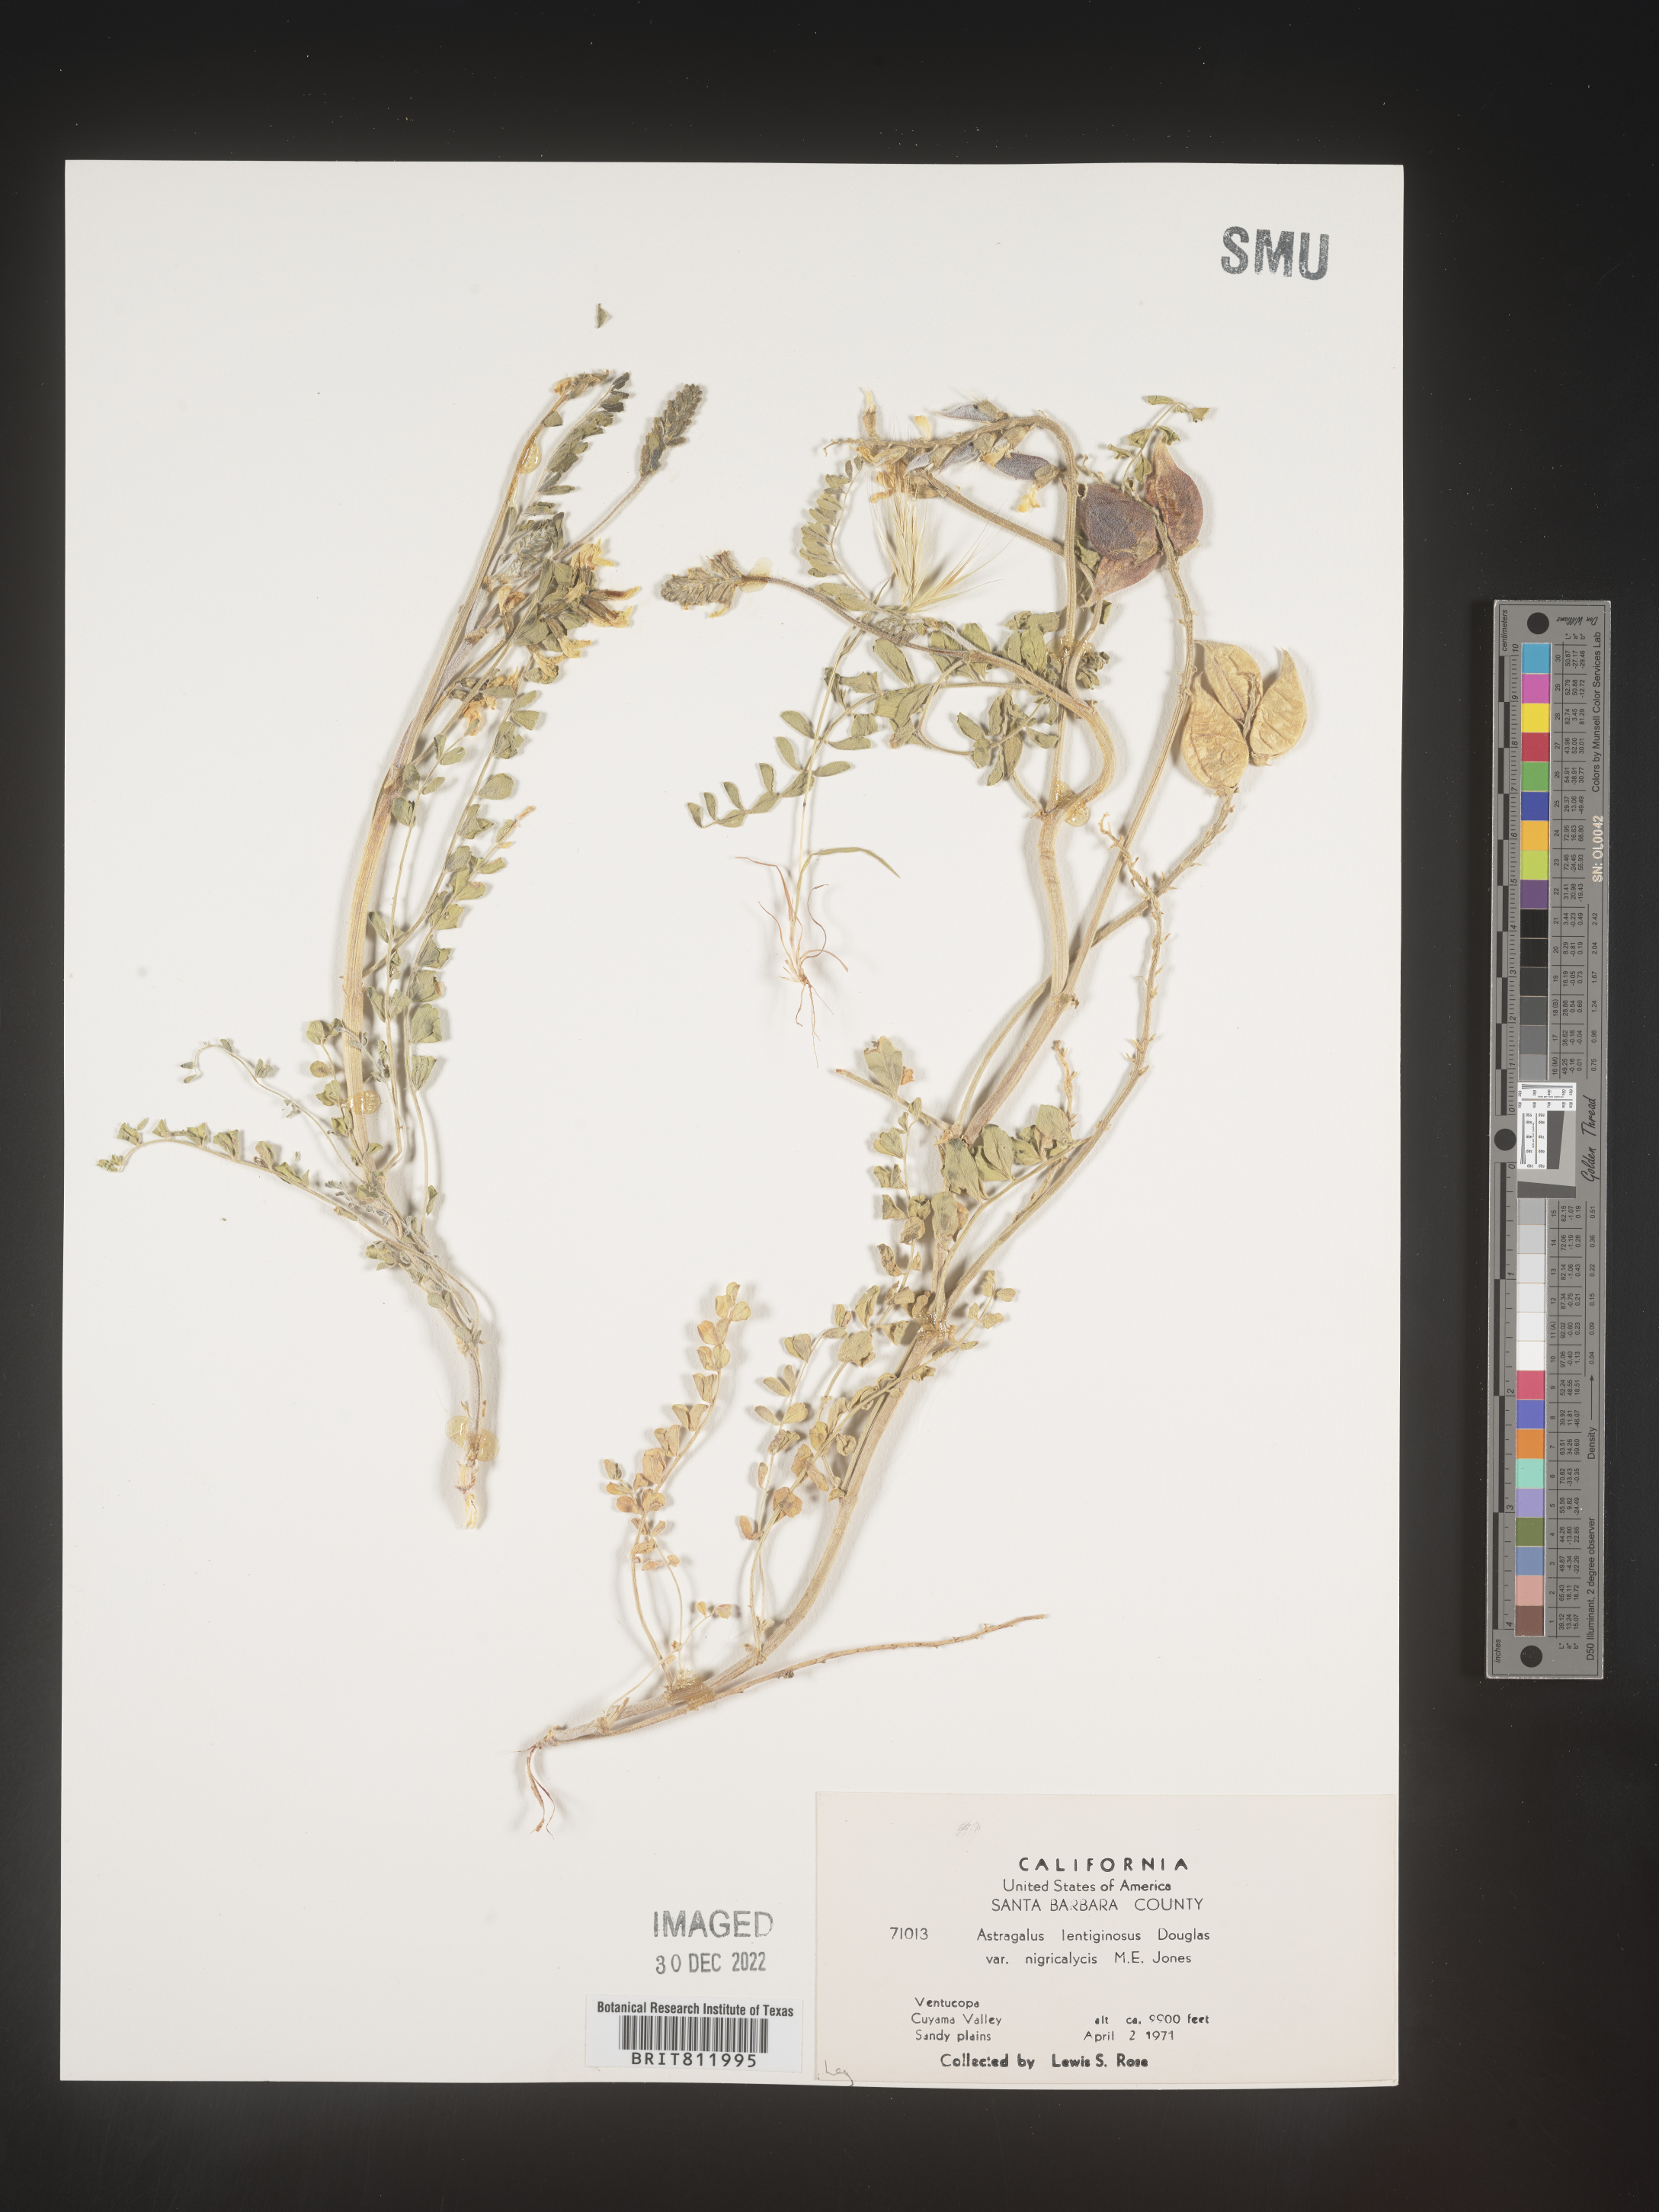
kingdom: Plantae
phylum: Tracheophyta
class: Magnoliopsida
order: Fabales
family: Fabaceae
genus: Astragalus
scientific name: Astragalus lentiginosus
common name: Freckled milkvetch
